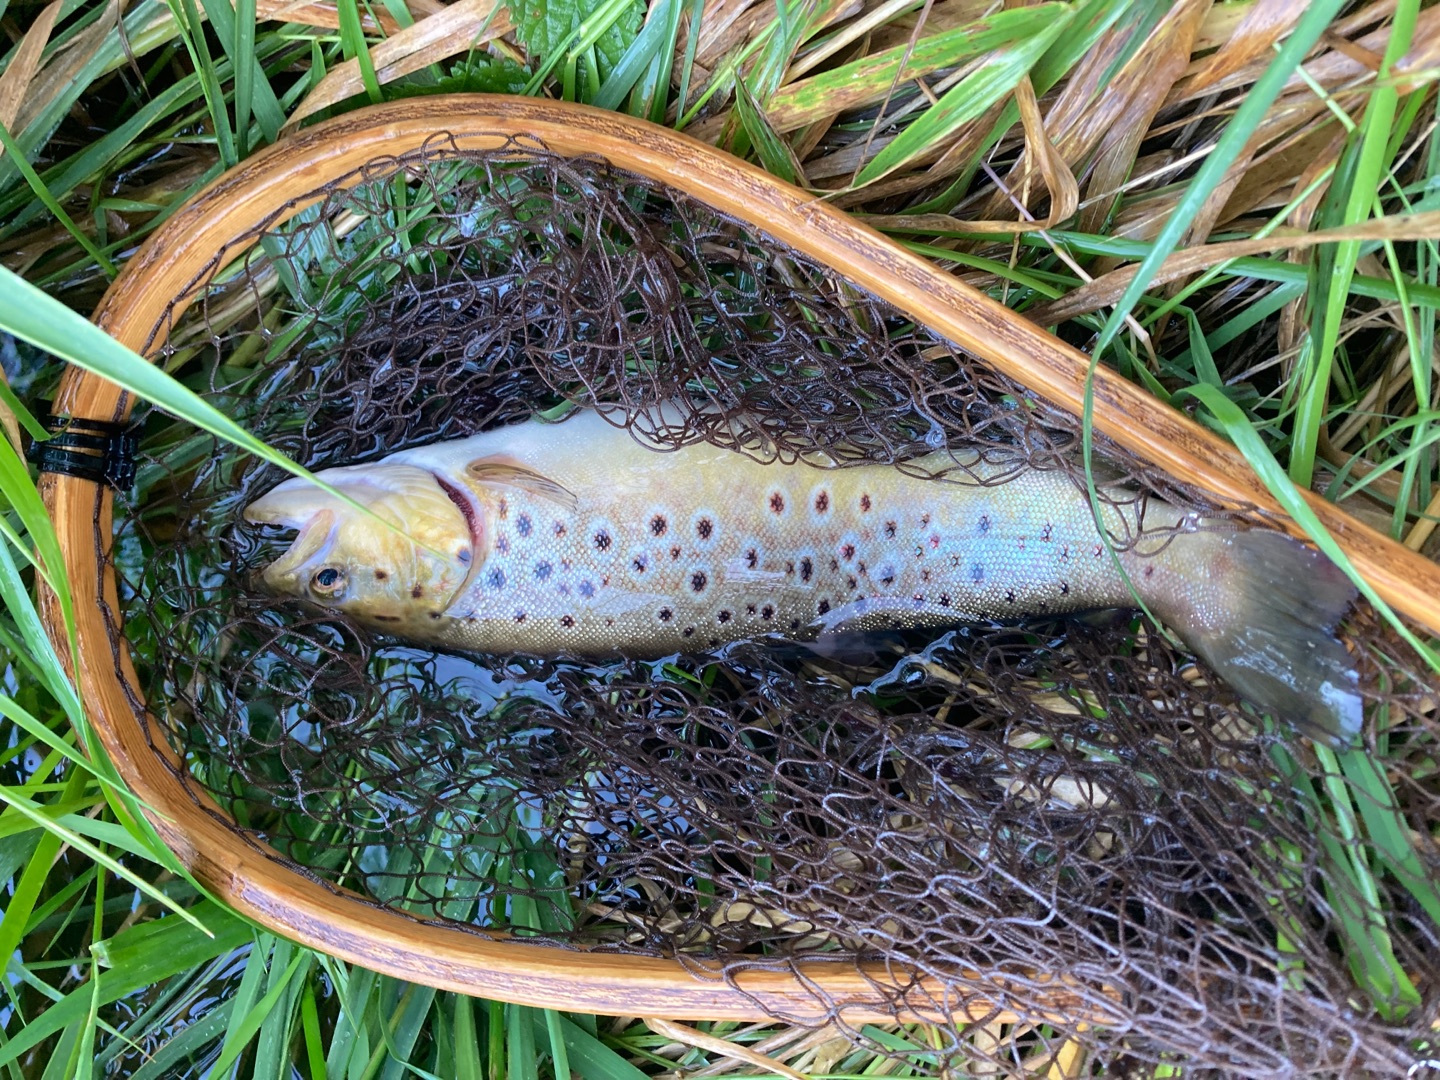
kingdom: Animalia
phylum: Chordata
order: Salmoniformes
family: Salmonidae
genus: Salmo
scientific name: Salmo trutta
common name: Ørred
